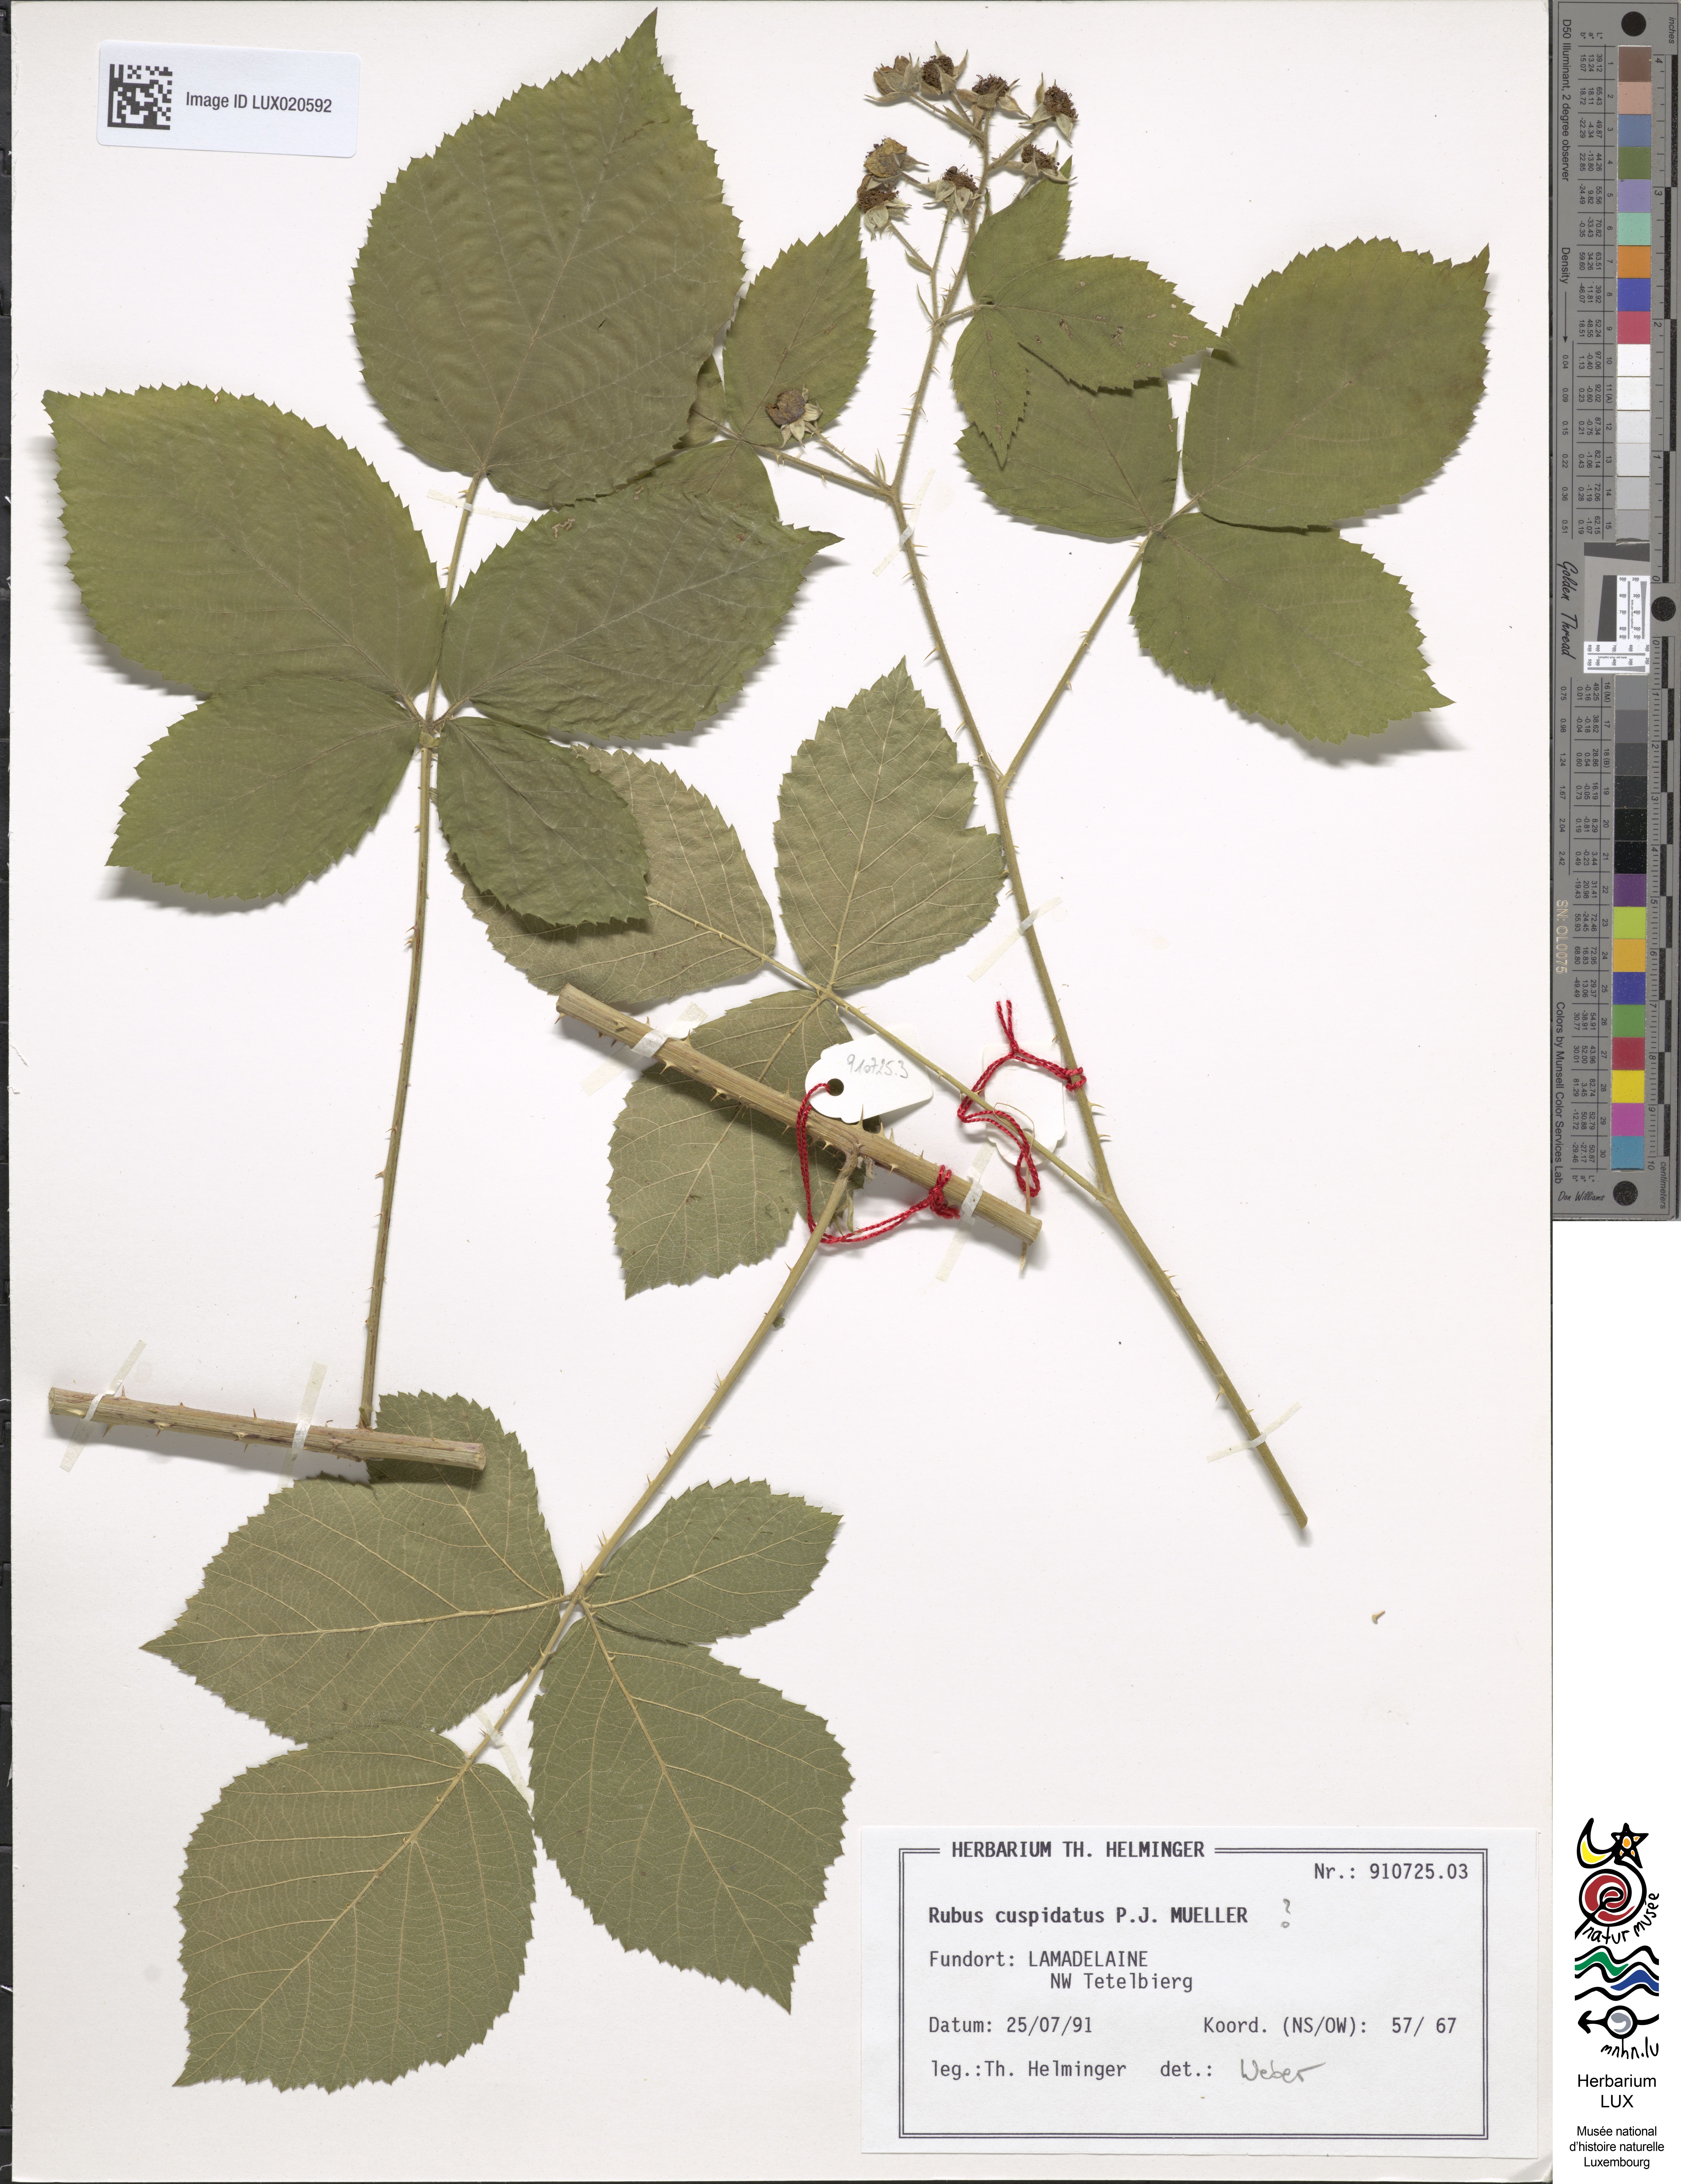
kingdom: Plantae
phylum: Tracheophyta
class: Magnoliopsida
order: Rosales
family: Rosaceae
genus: Rubus
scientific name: Rubus cuspidatus
